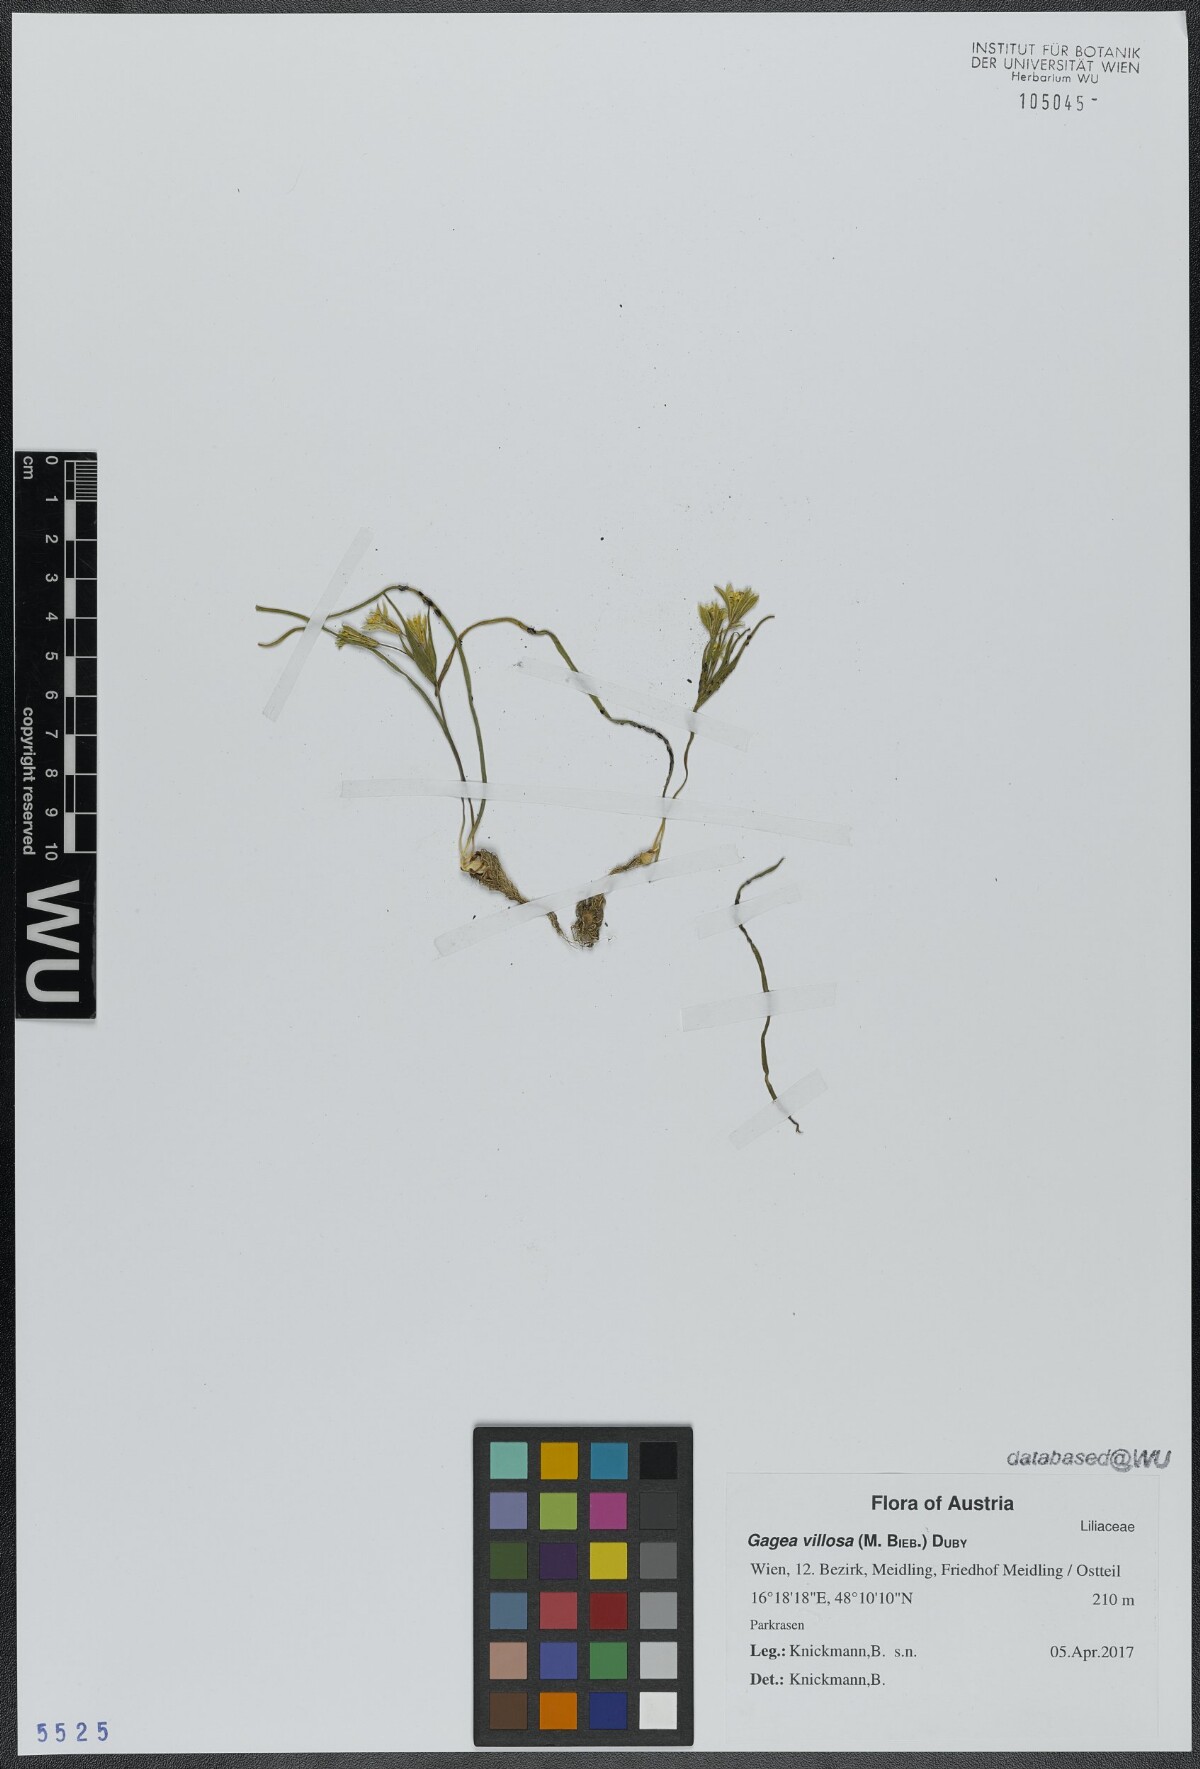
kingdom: Plantae
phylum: Tracheophyta
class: Liliopsida
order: Liliales
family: Liliaceae
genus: Gagea
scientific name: Gagea villosa
